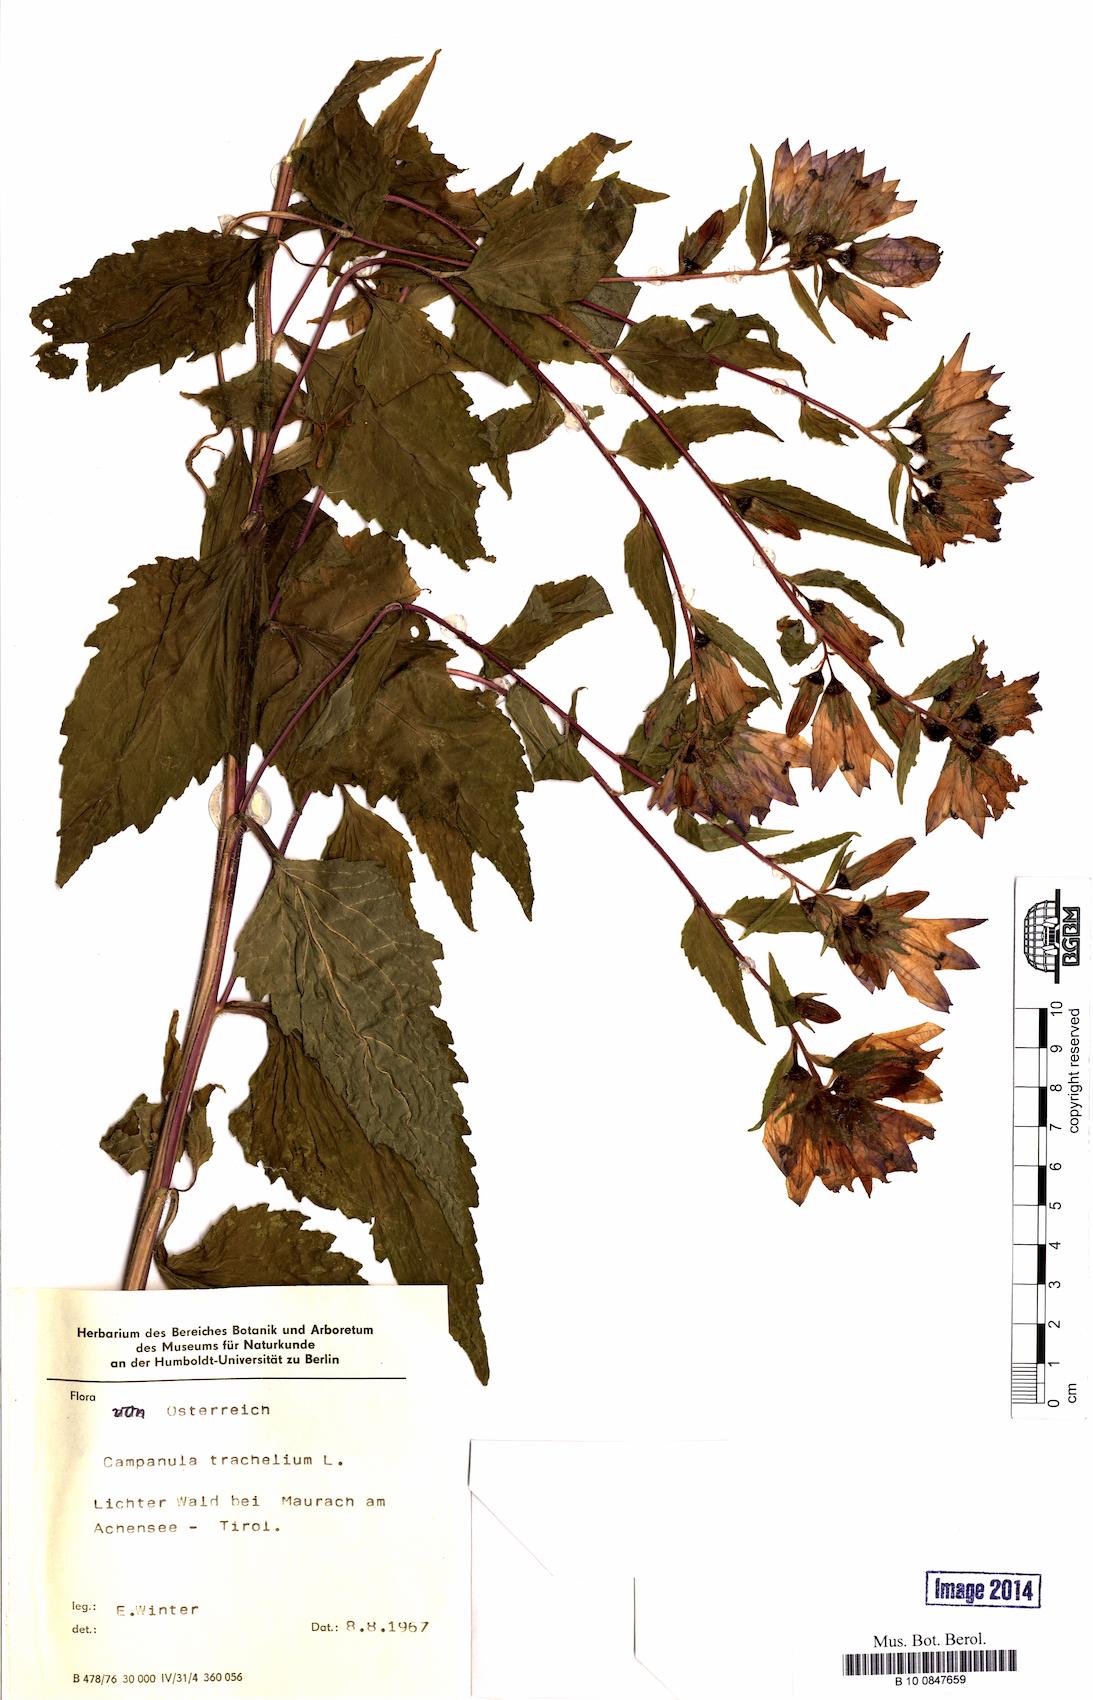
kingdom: Plantae
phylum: Tracheophyta
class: Magnoliopsida
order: Asterales
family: Campanulaceae
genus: Campanula
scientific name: Campanula trachelium
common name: Nettle-leaved bellflower
